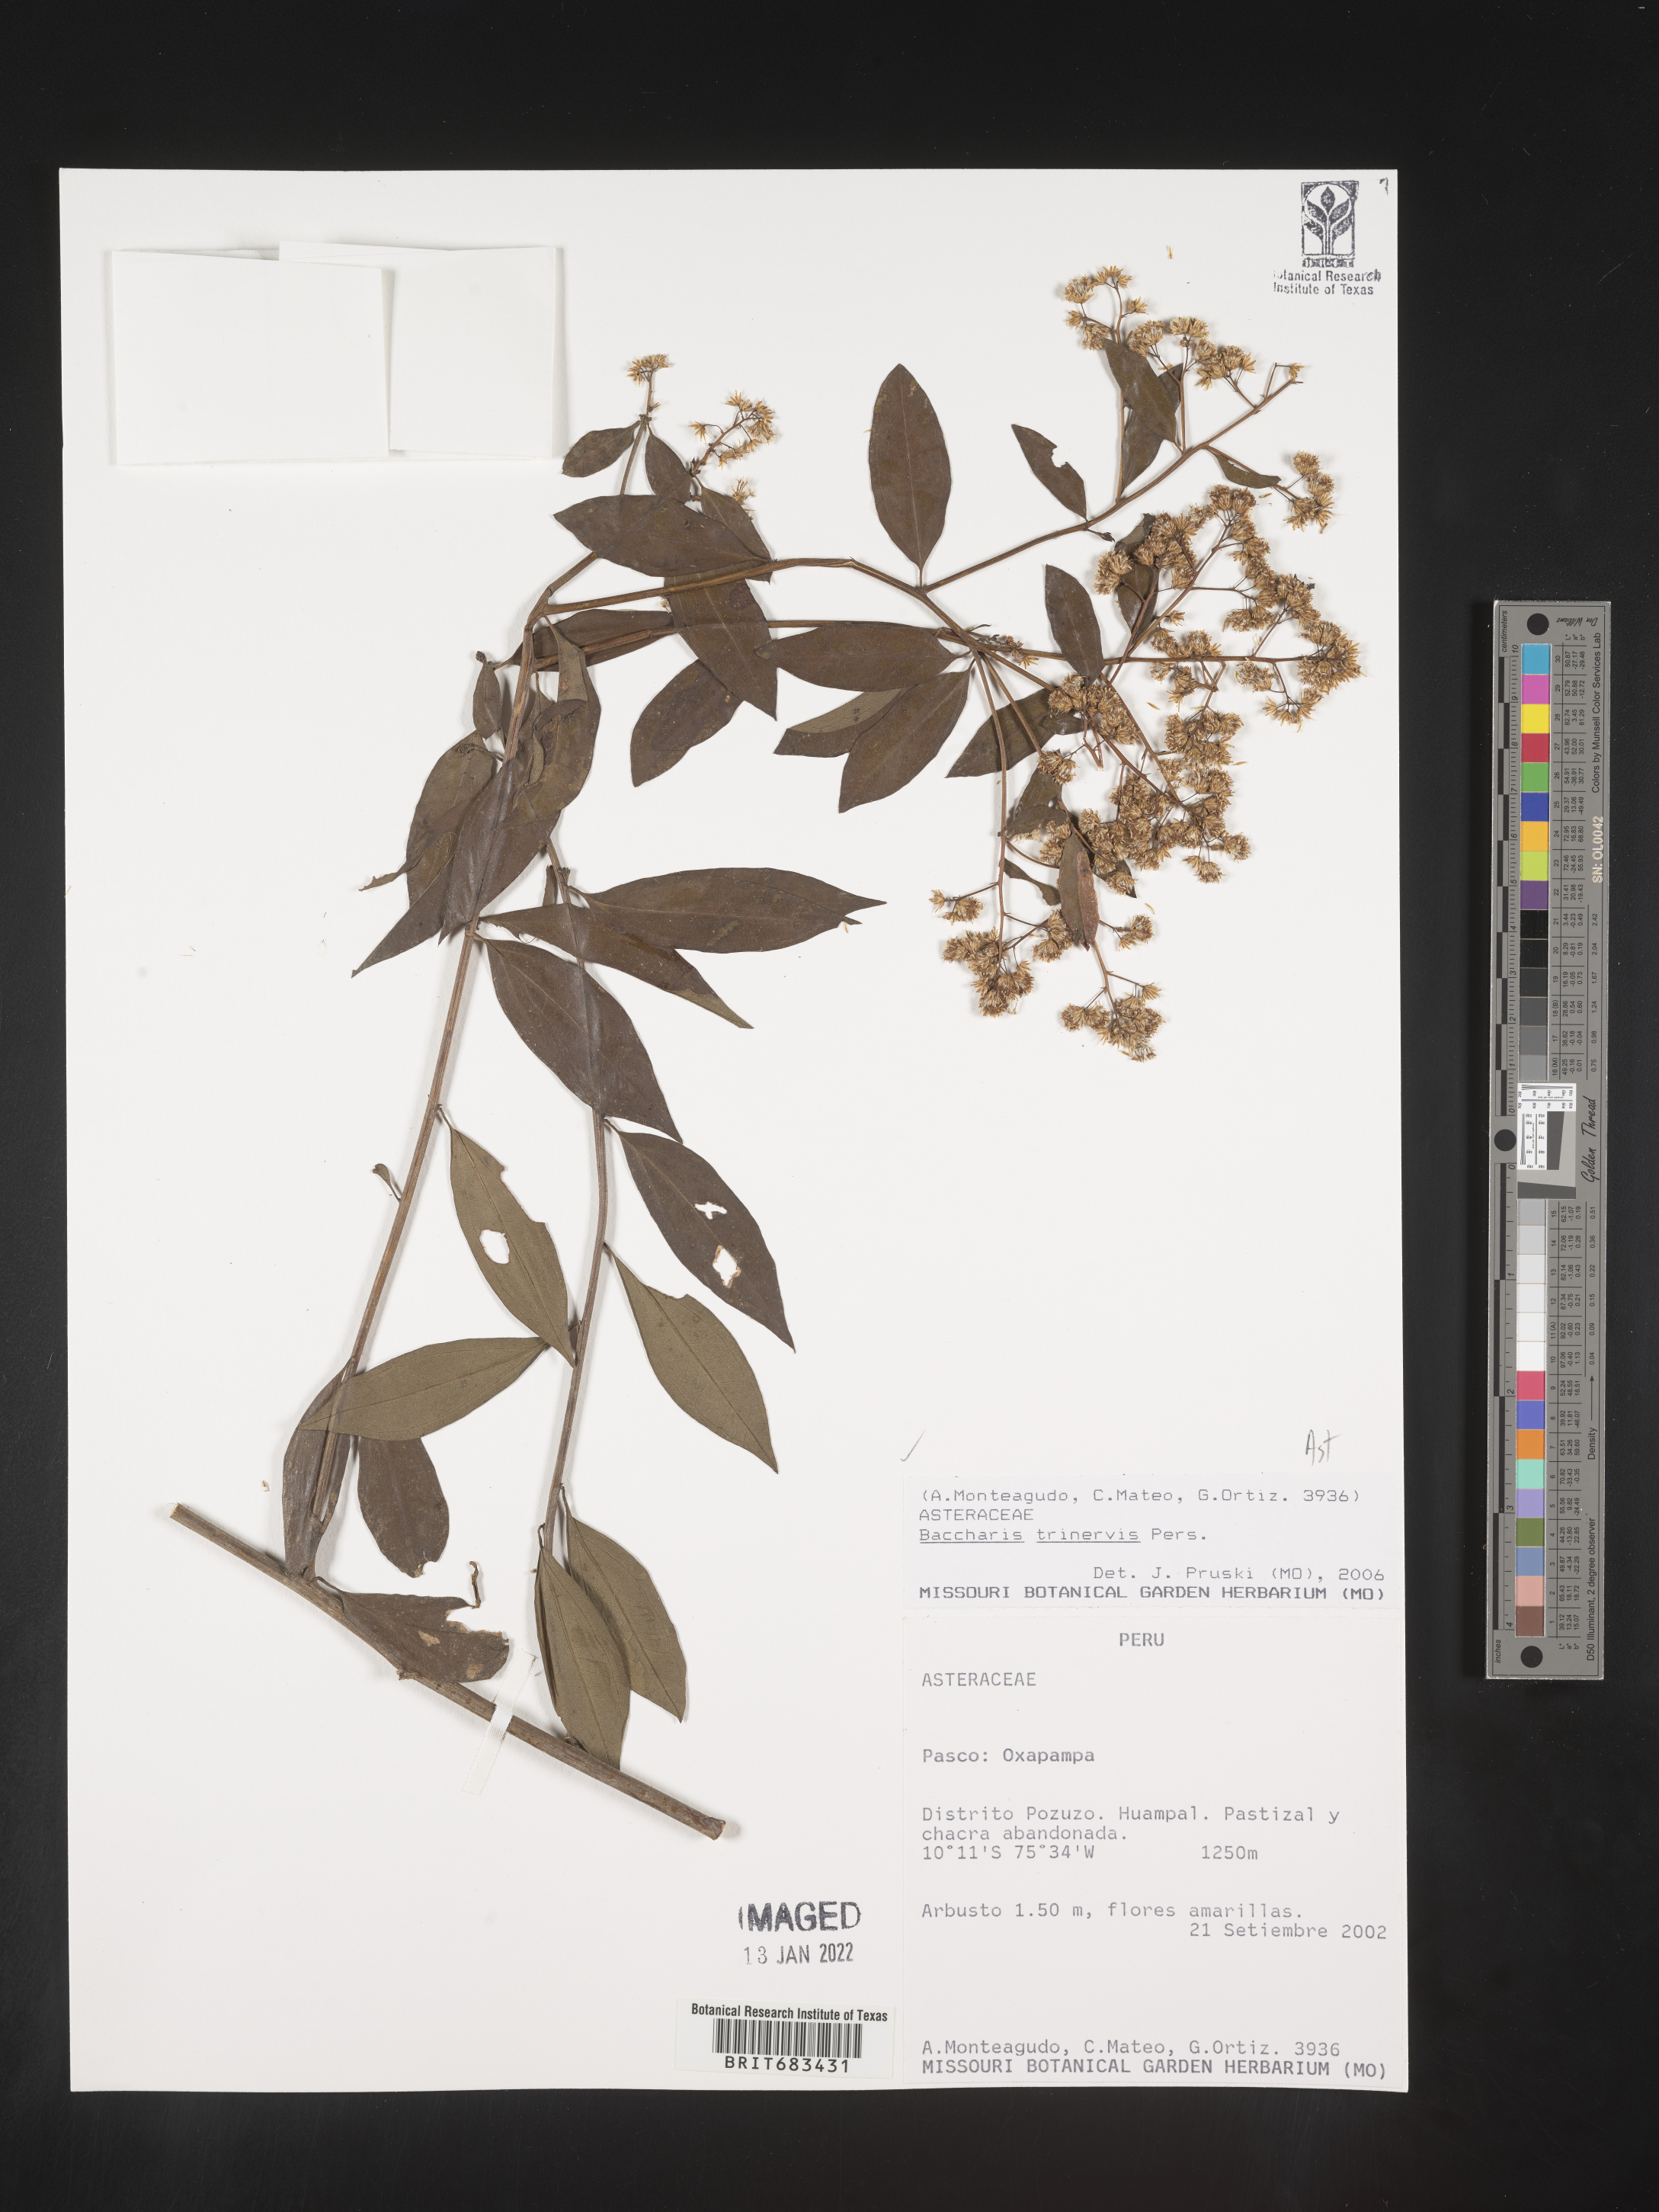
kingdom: Plantae
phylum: Tracheophyta
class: Magnoliopsida
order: Asterales
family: Asteraceae
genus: Baccharis
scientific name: Baccharis trinervis
